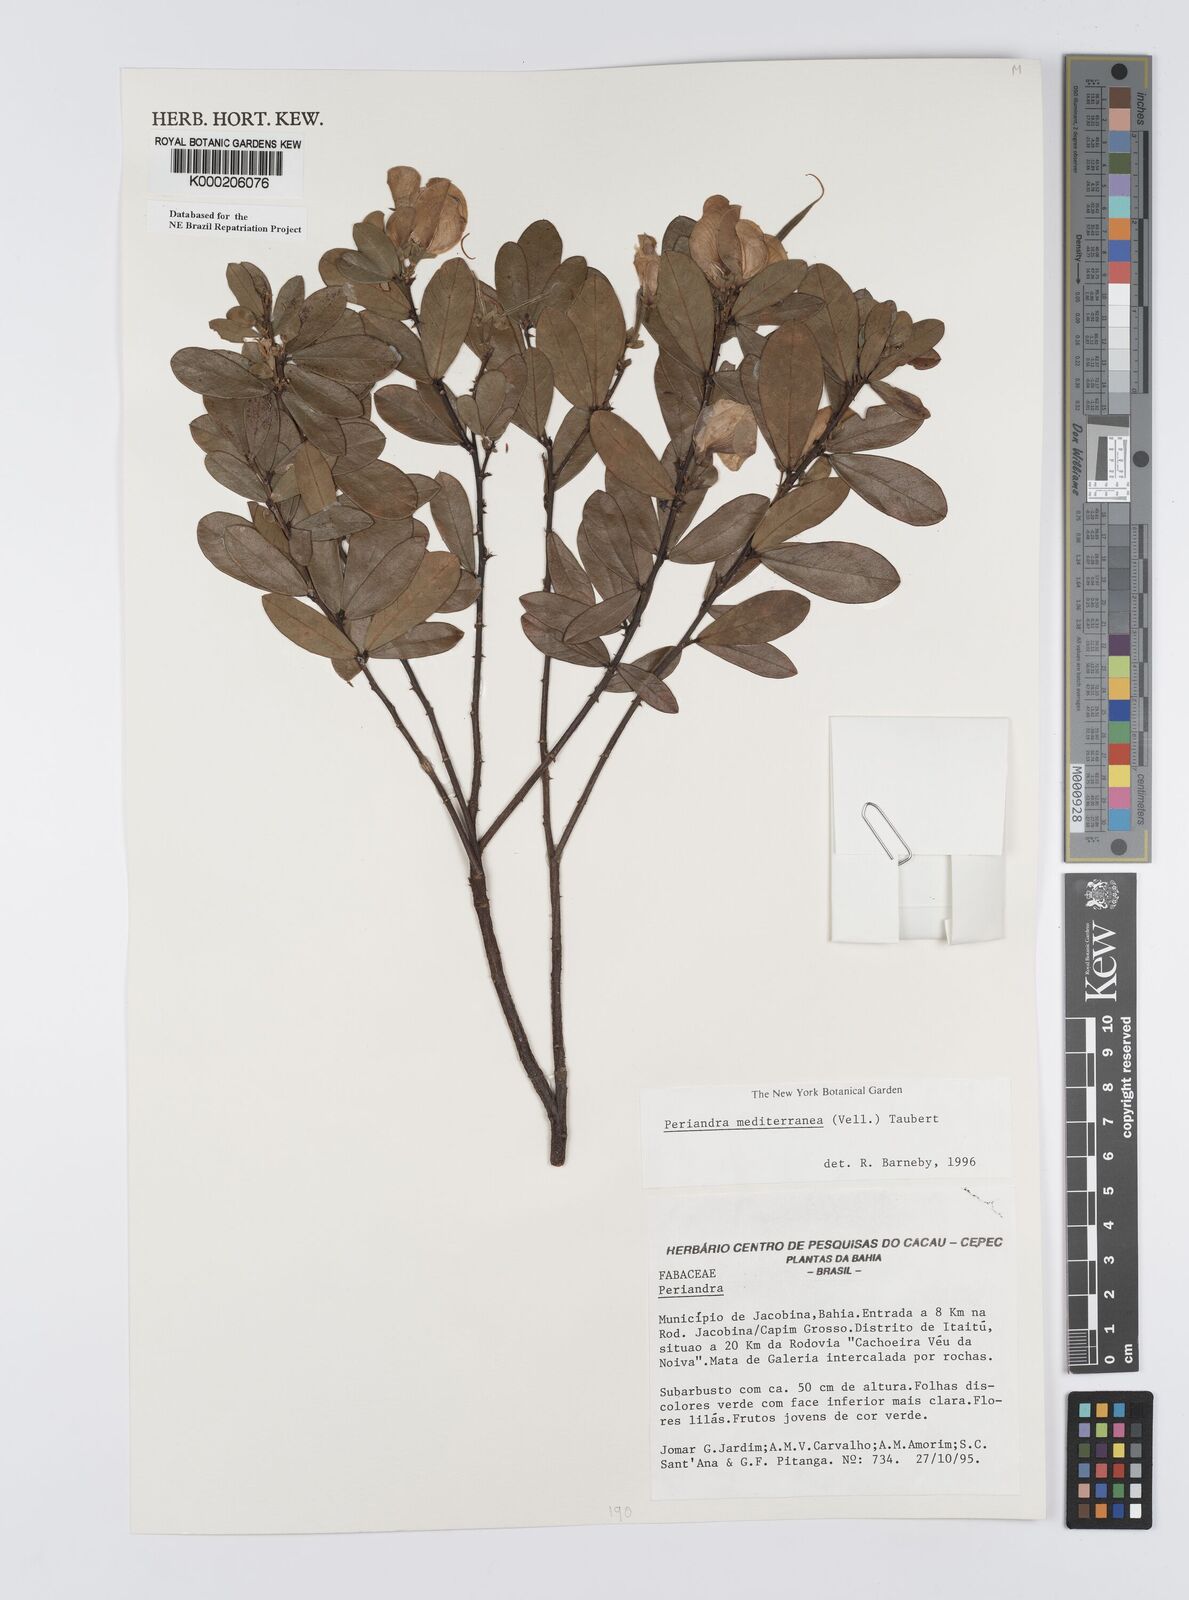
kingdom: Plantae
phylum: Tracheophyta
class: Magnoliopsida
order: Fabales
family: Fabaceae
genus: Periandra
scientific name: Periandra mediterranea
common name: Brazilian licorice
